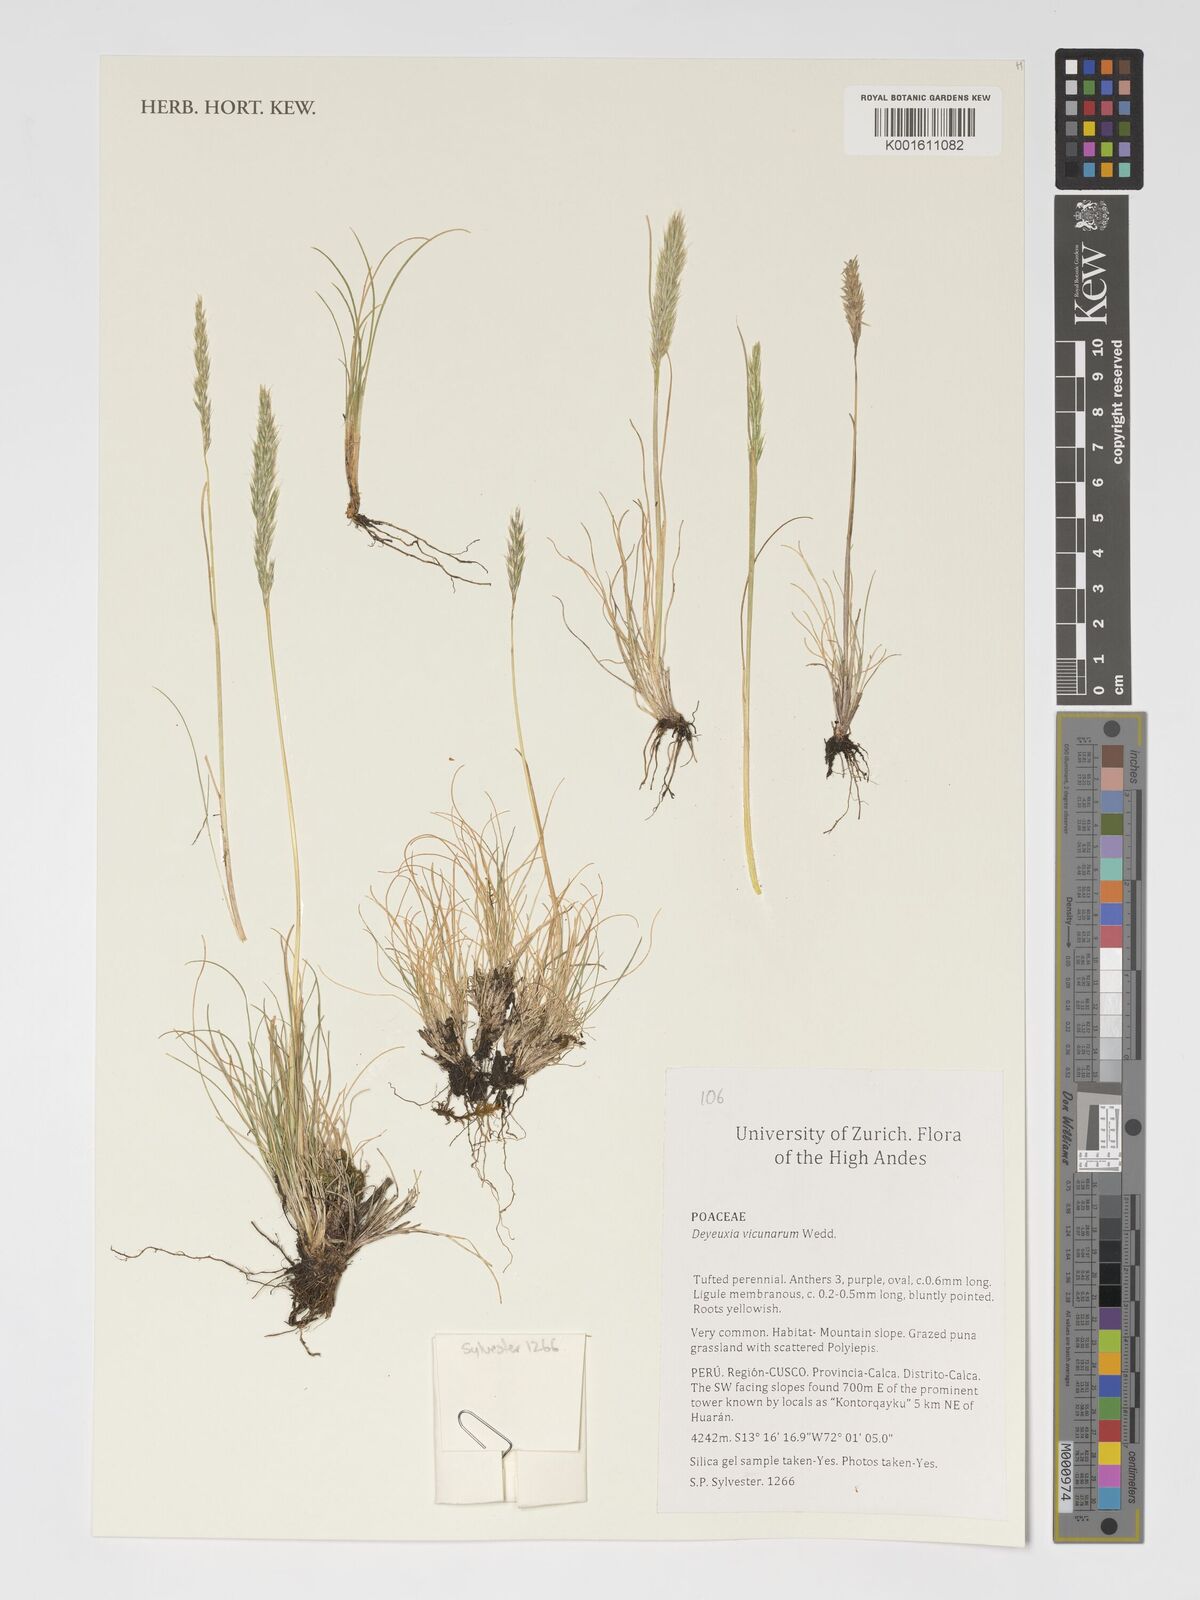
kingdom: Plantae
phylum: Tracheophyta
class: Liliopsida
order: Poales
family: Poaceae
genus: Cinnagrostis
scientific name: Cinnagrostis vicunarum
